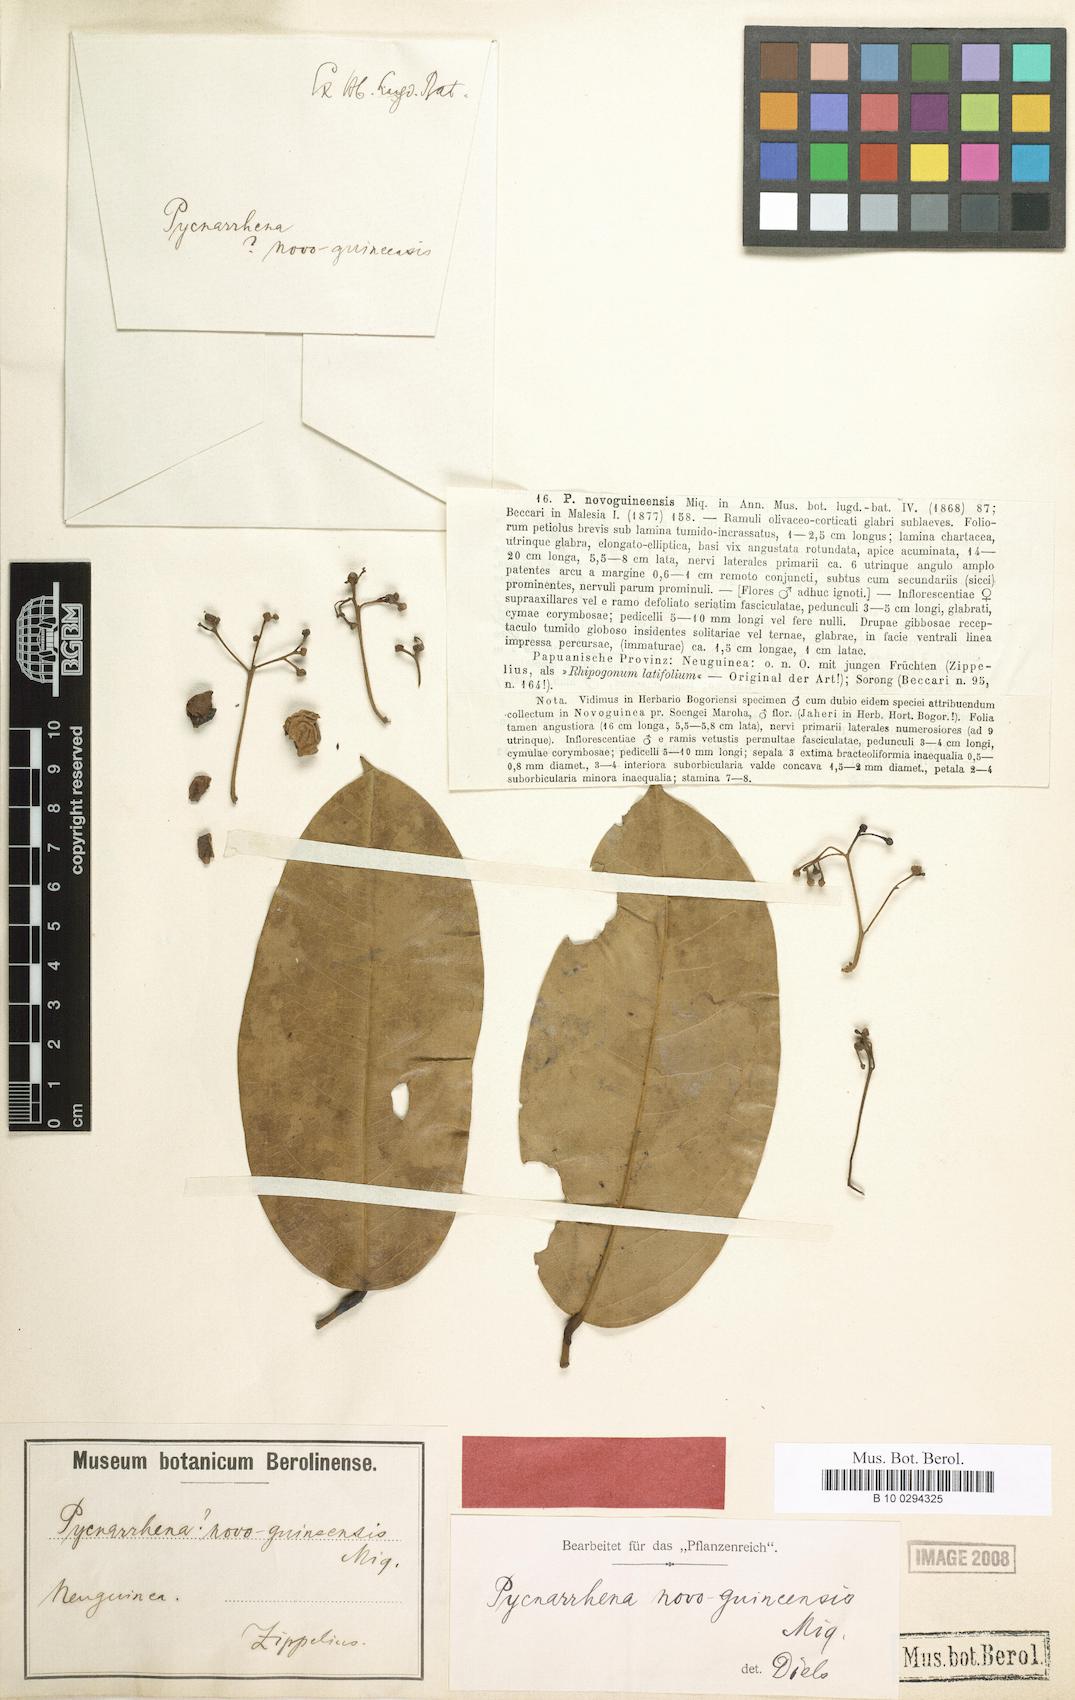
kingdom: Plantae
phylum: Tracheophyta
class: Magnoliopsida
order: Ranunculales
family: Menispermaceae
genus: Pycnarrhena
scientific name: Pycnarrhena novoguineensis
